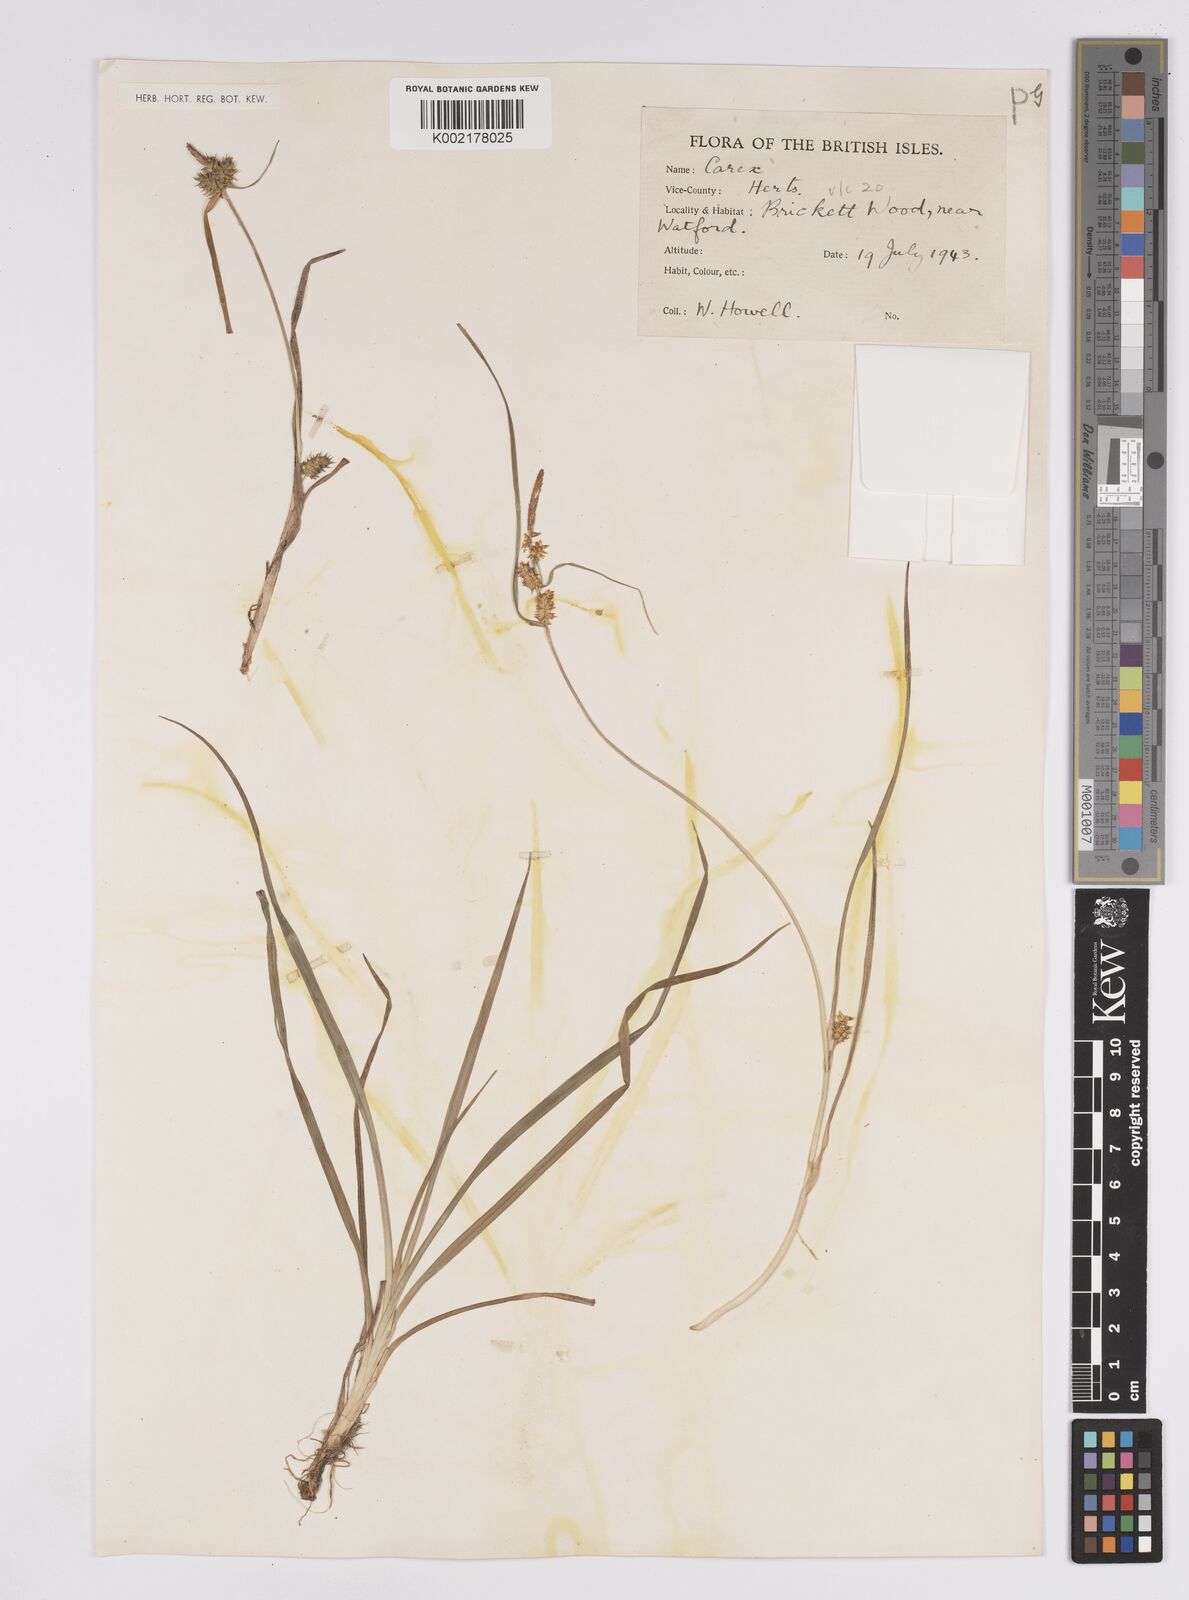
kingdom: Plantae
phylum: Tracheophyta
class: Liliopsida
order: Poales
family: Cyperaceae
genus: Carex
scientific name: Carex demissa
